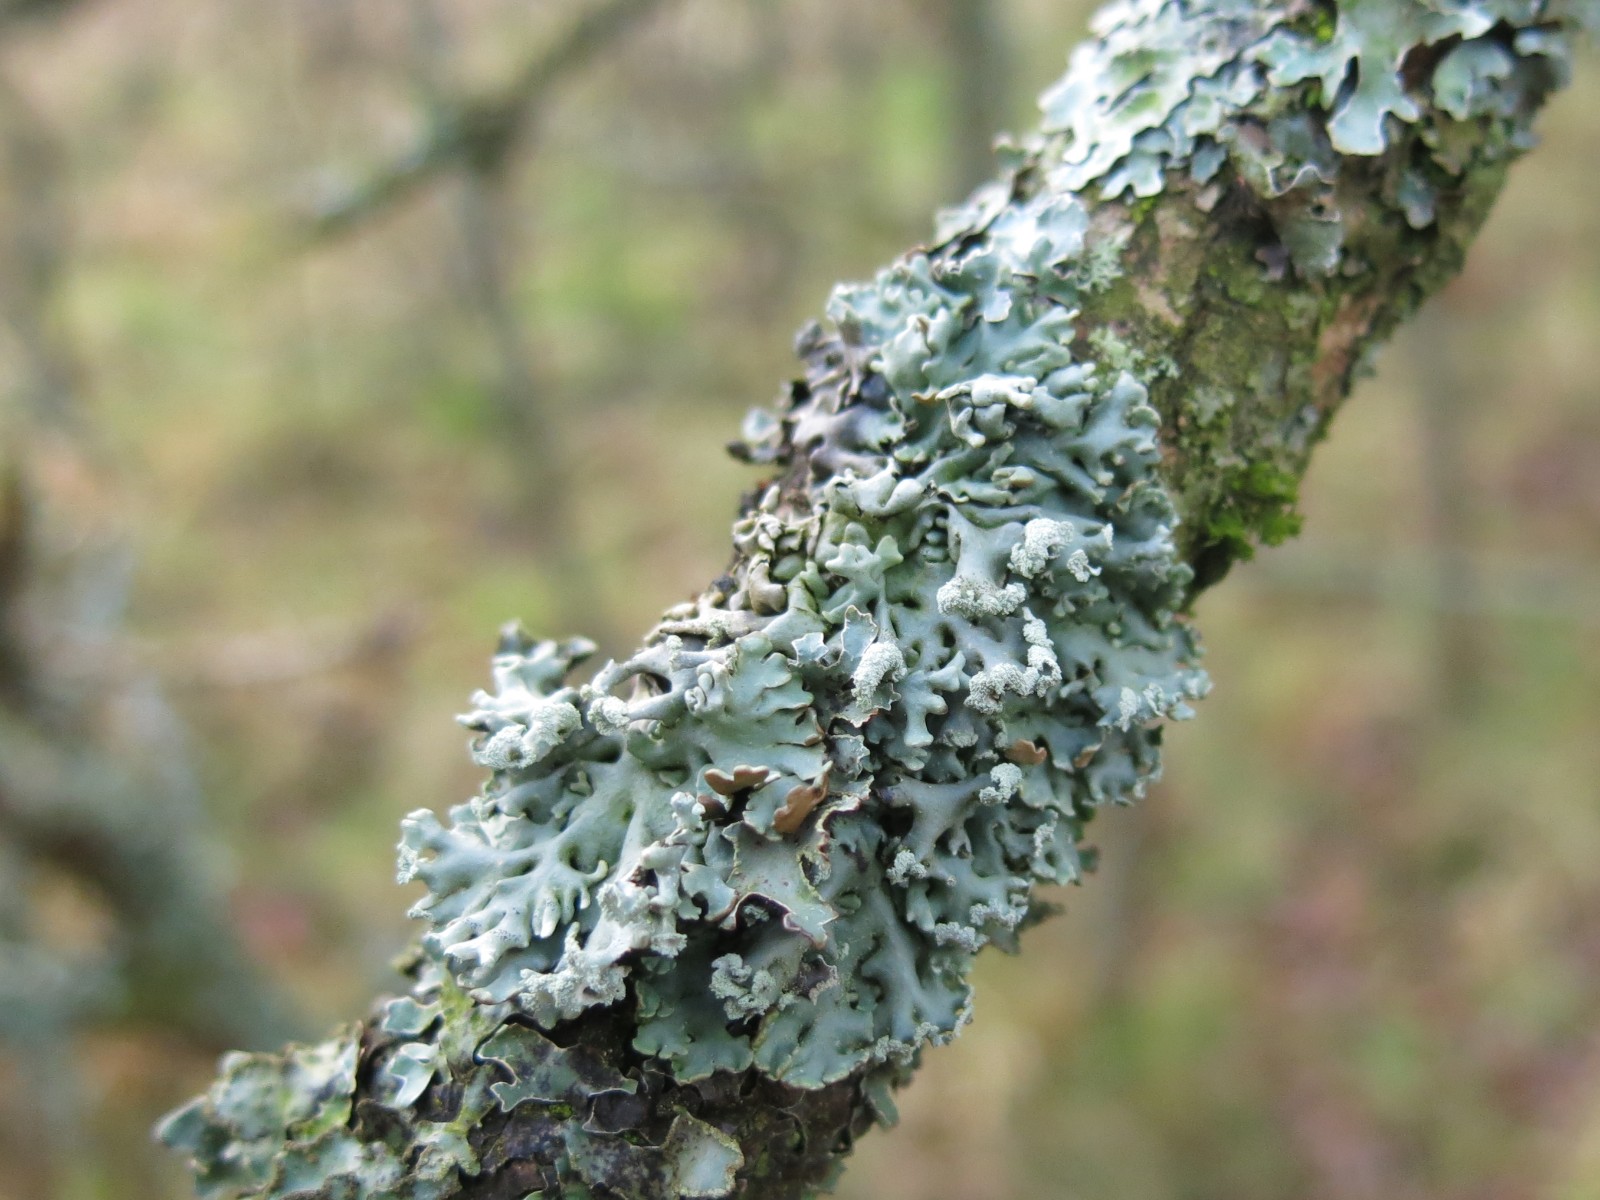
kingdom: Fungi
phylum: Ascomycota
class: Lecanoromycetes
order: Lecanorales
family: Parmeliaceae
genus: Hypogymnia
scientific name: Hypogymnia physodes
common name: almindelig kvistlav
